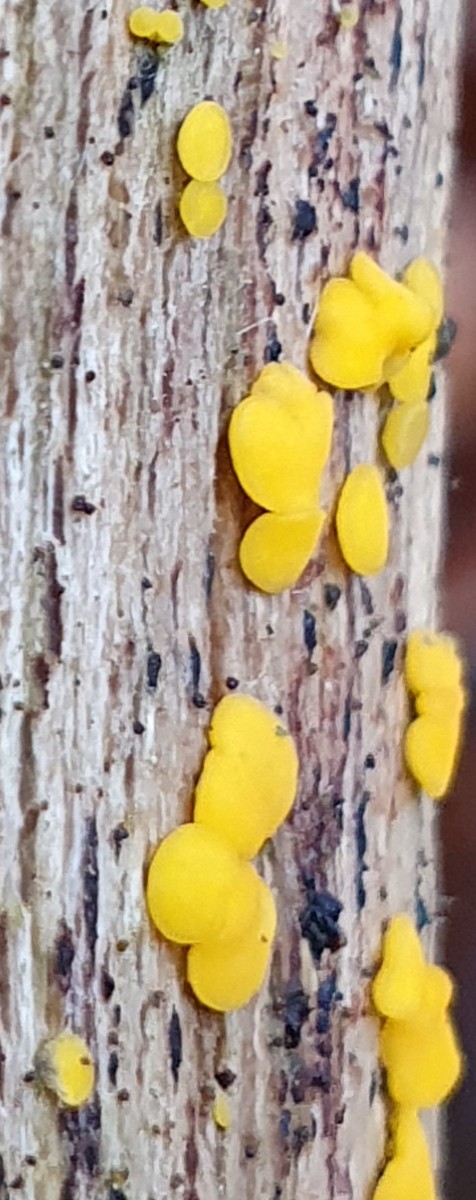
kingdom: Fungi
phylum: Ascomycota
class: Leotiomycetes
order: Helotiales
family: Pezizellaceae
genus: Calycina
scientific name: Calycina citrina
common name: almindelig gulskive
